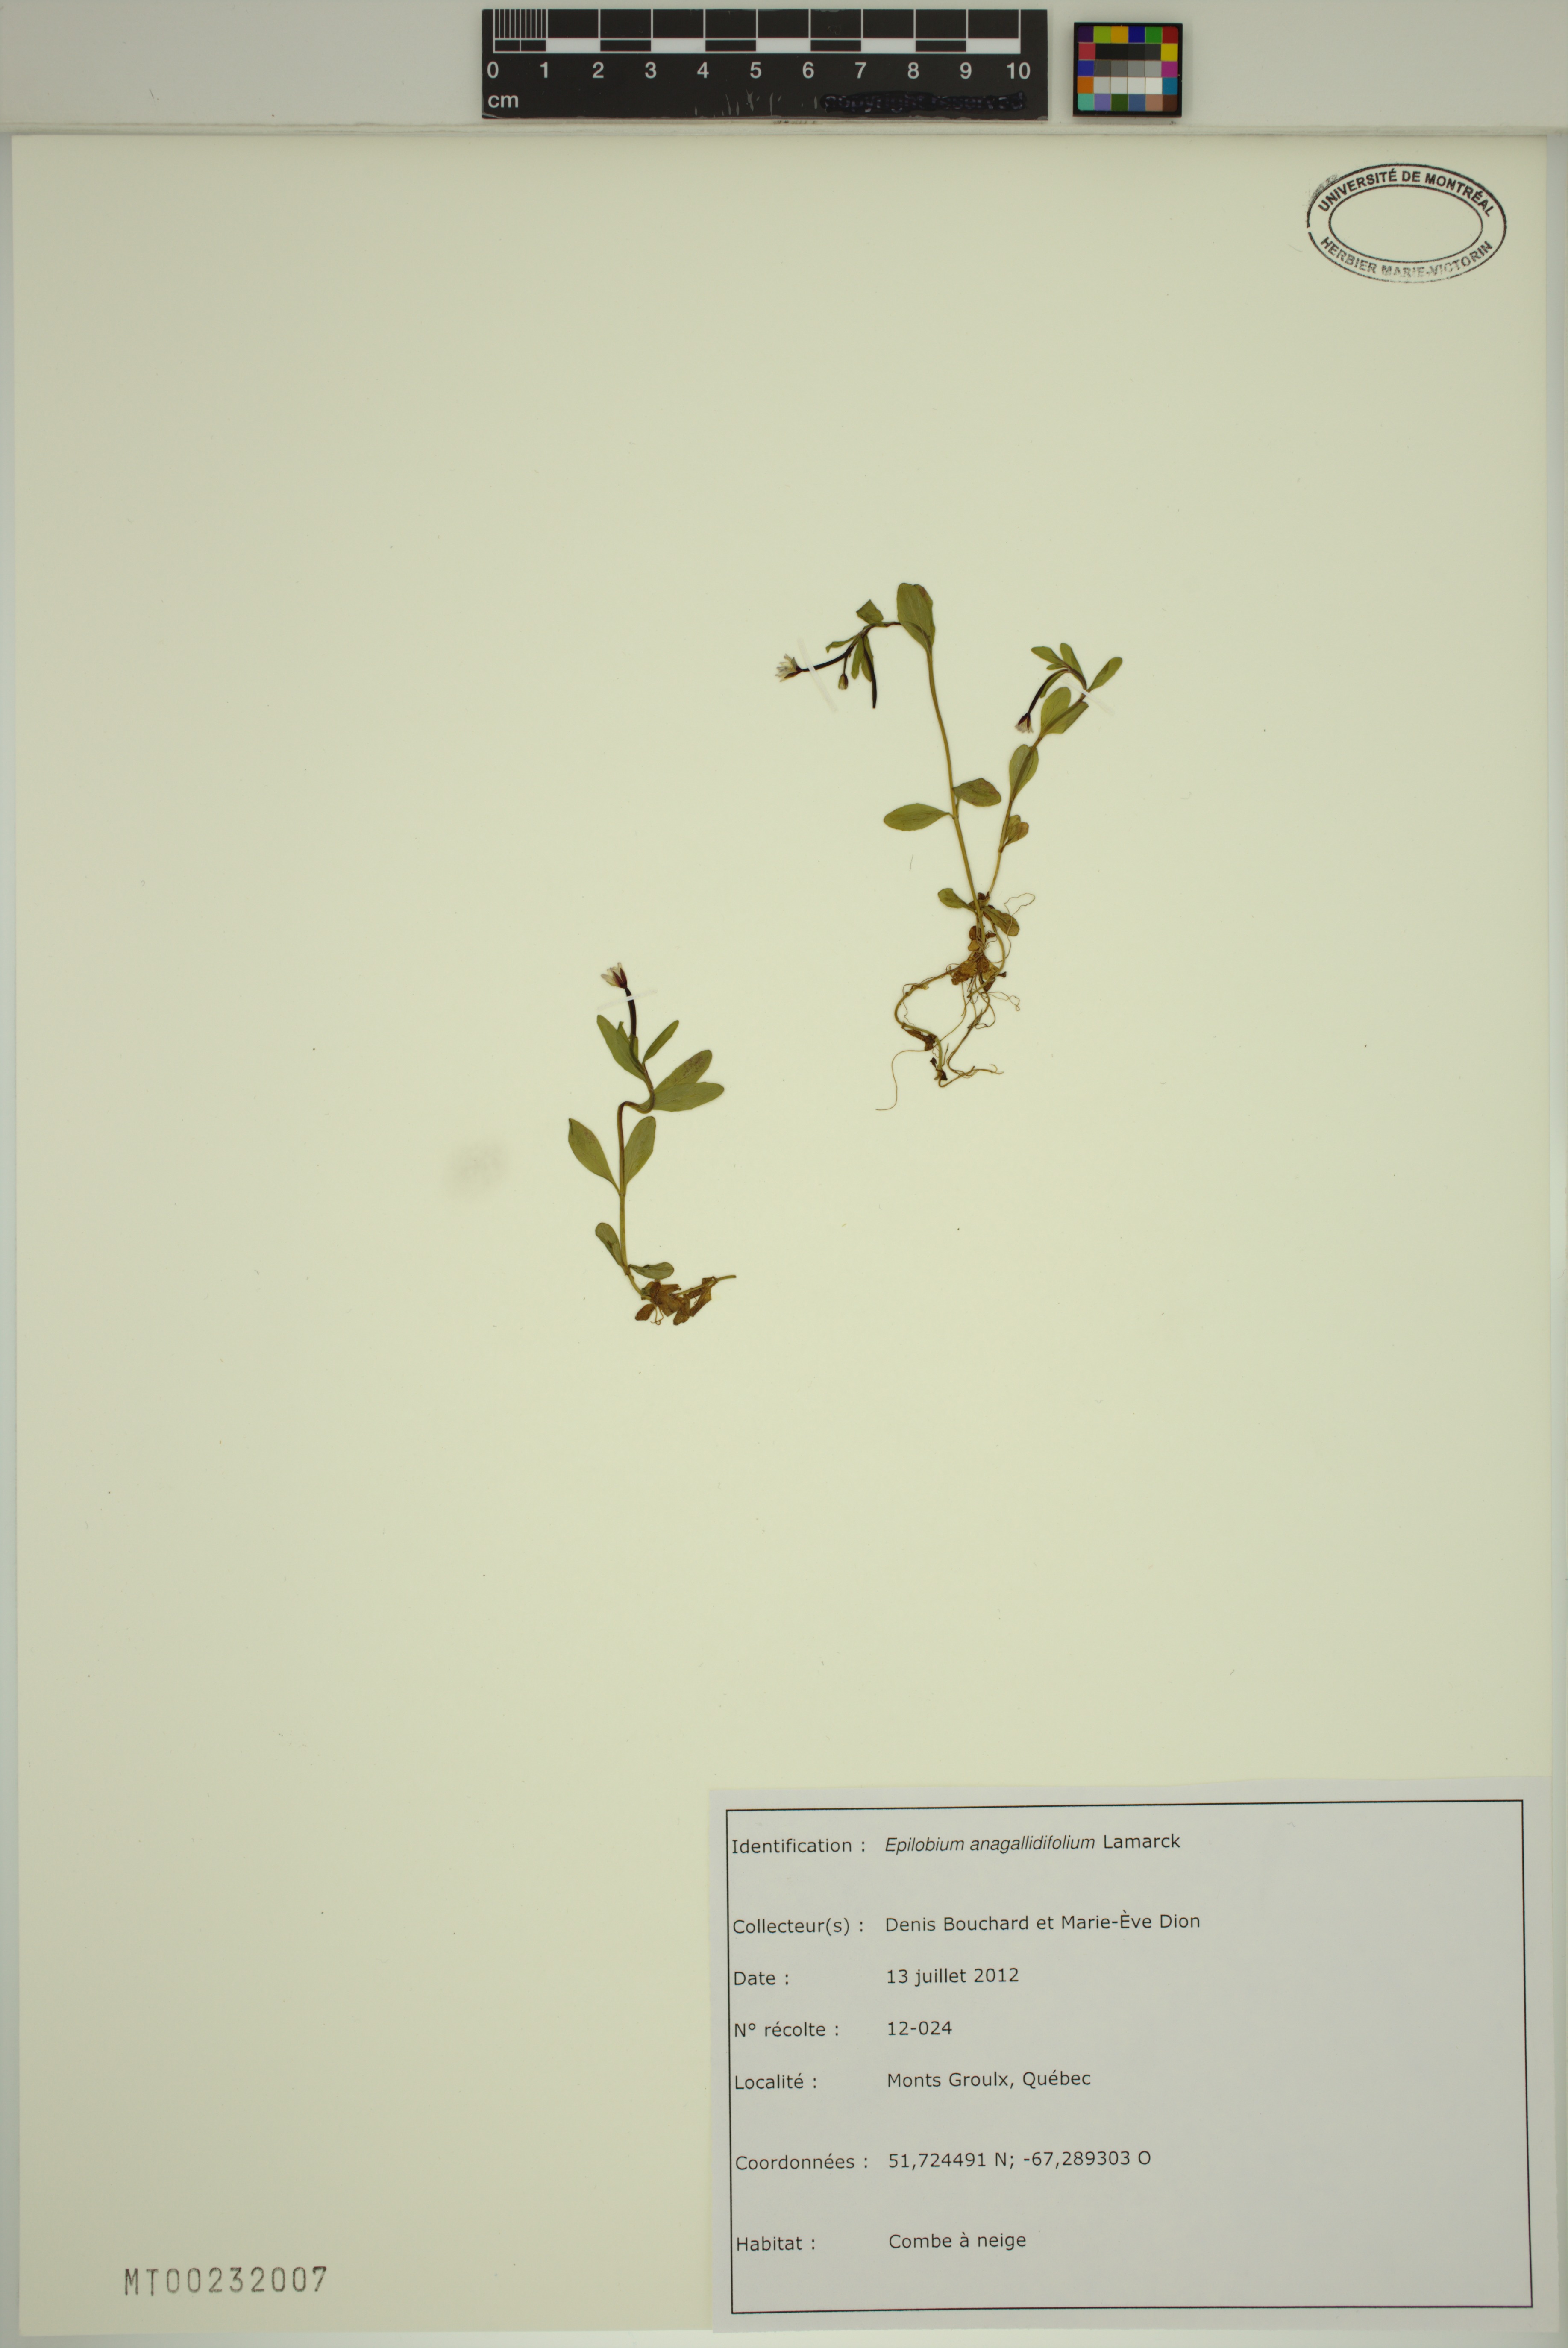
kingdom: Plantae
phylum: Tracheophyta
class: Magnoliopsida
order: Myrtales
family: Onagraceae
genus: Epilobium
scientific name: Epilobium anagallidifolium
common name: Alpine willowherb
